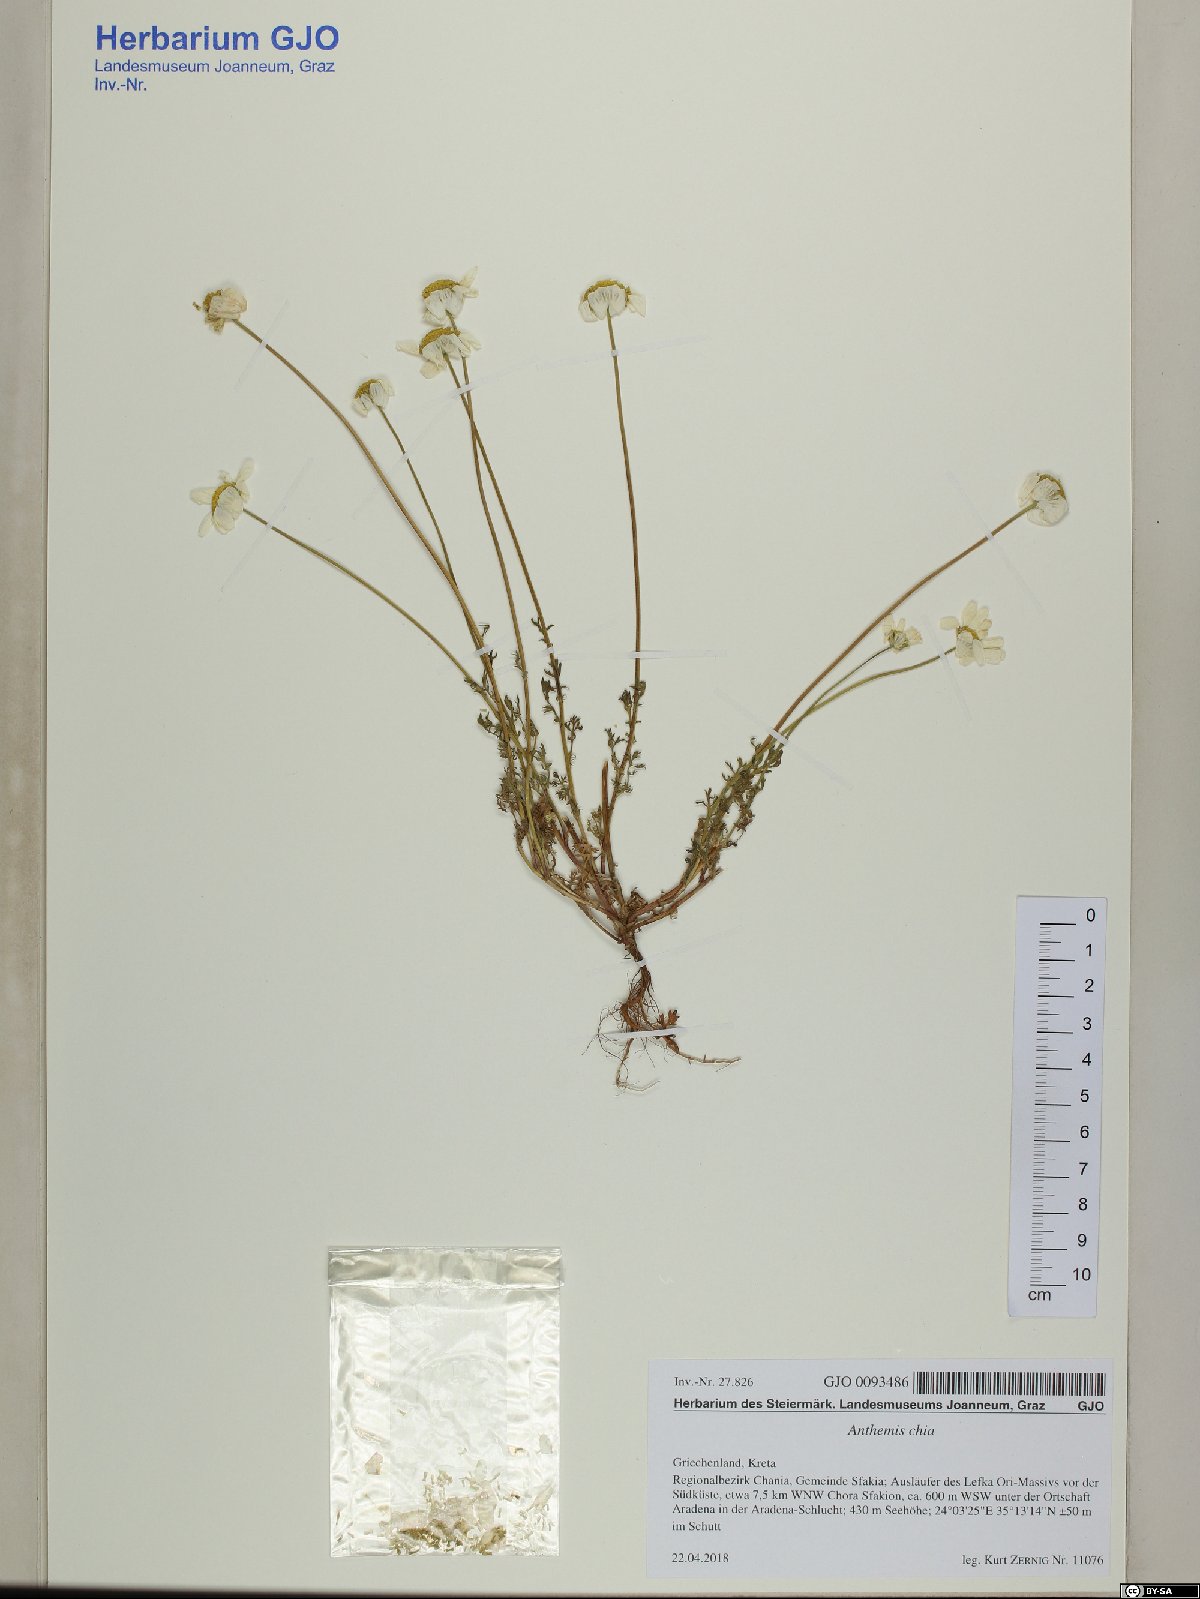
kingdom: Plantae
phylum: Tracheophyta
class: Magnoliopsida
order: Asterales
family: Asteraceae
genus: Anthemis
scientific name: Anthemis chia
